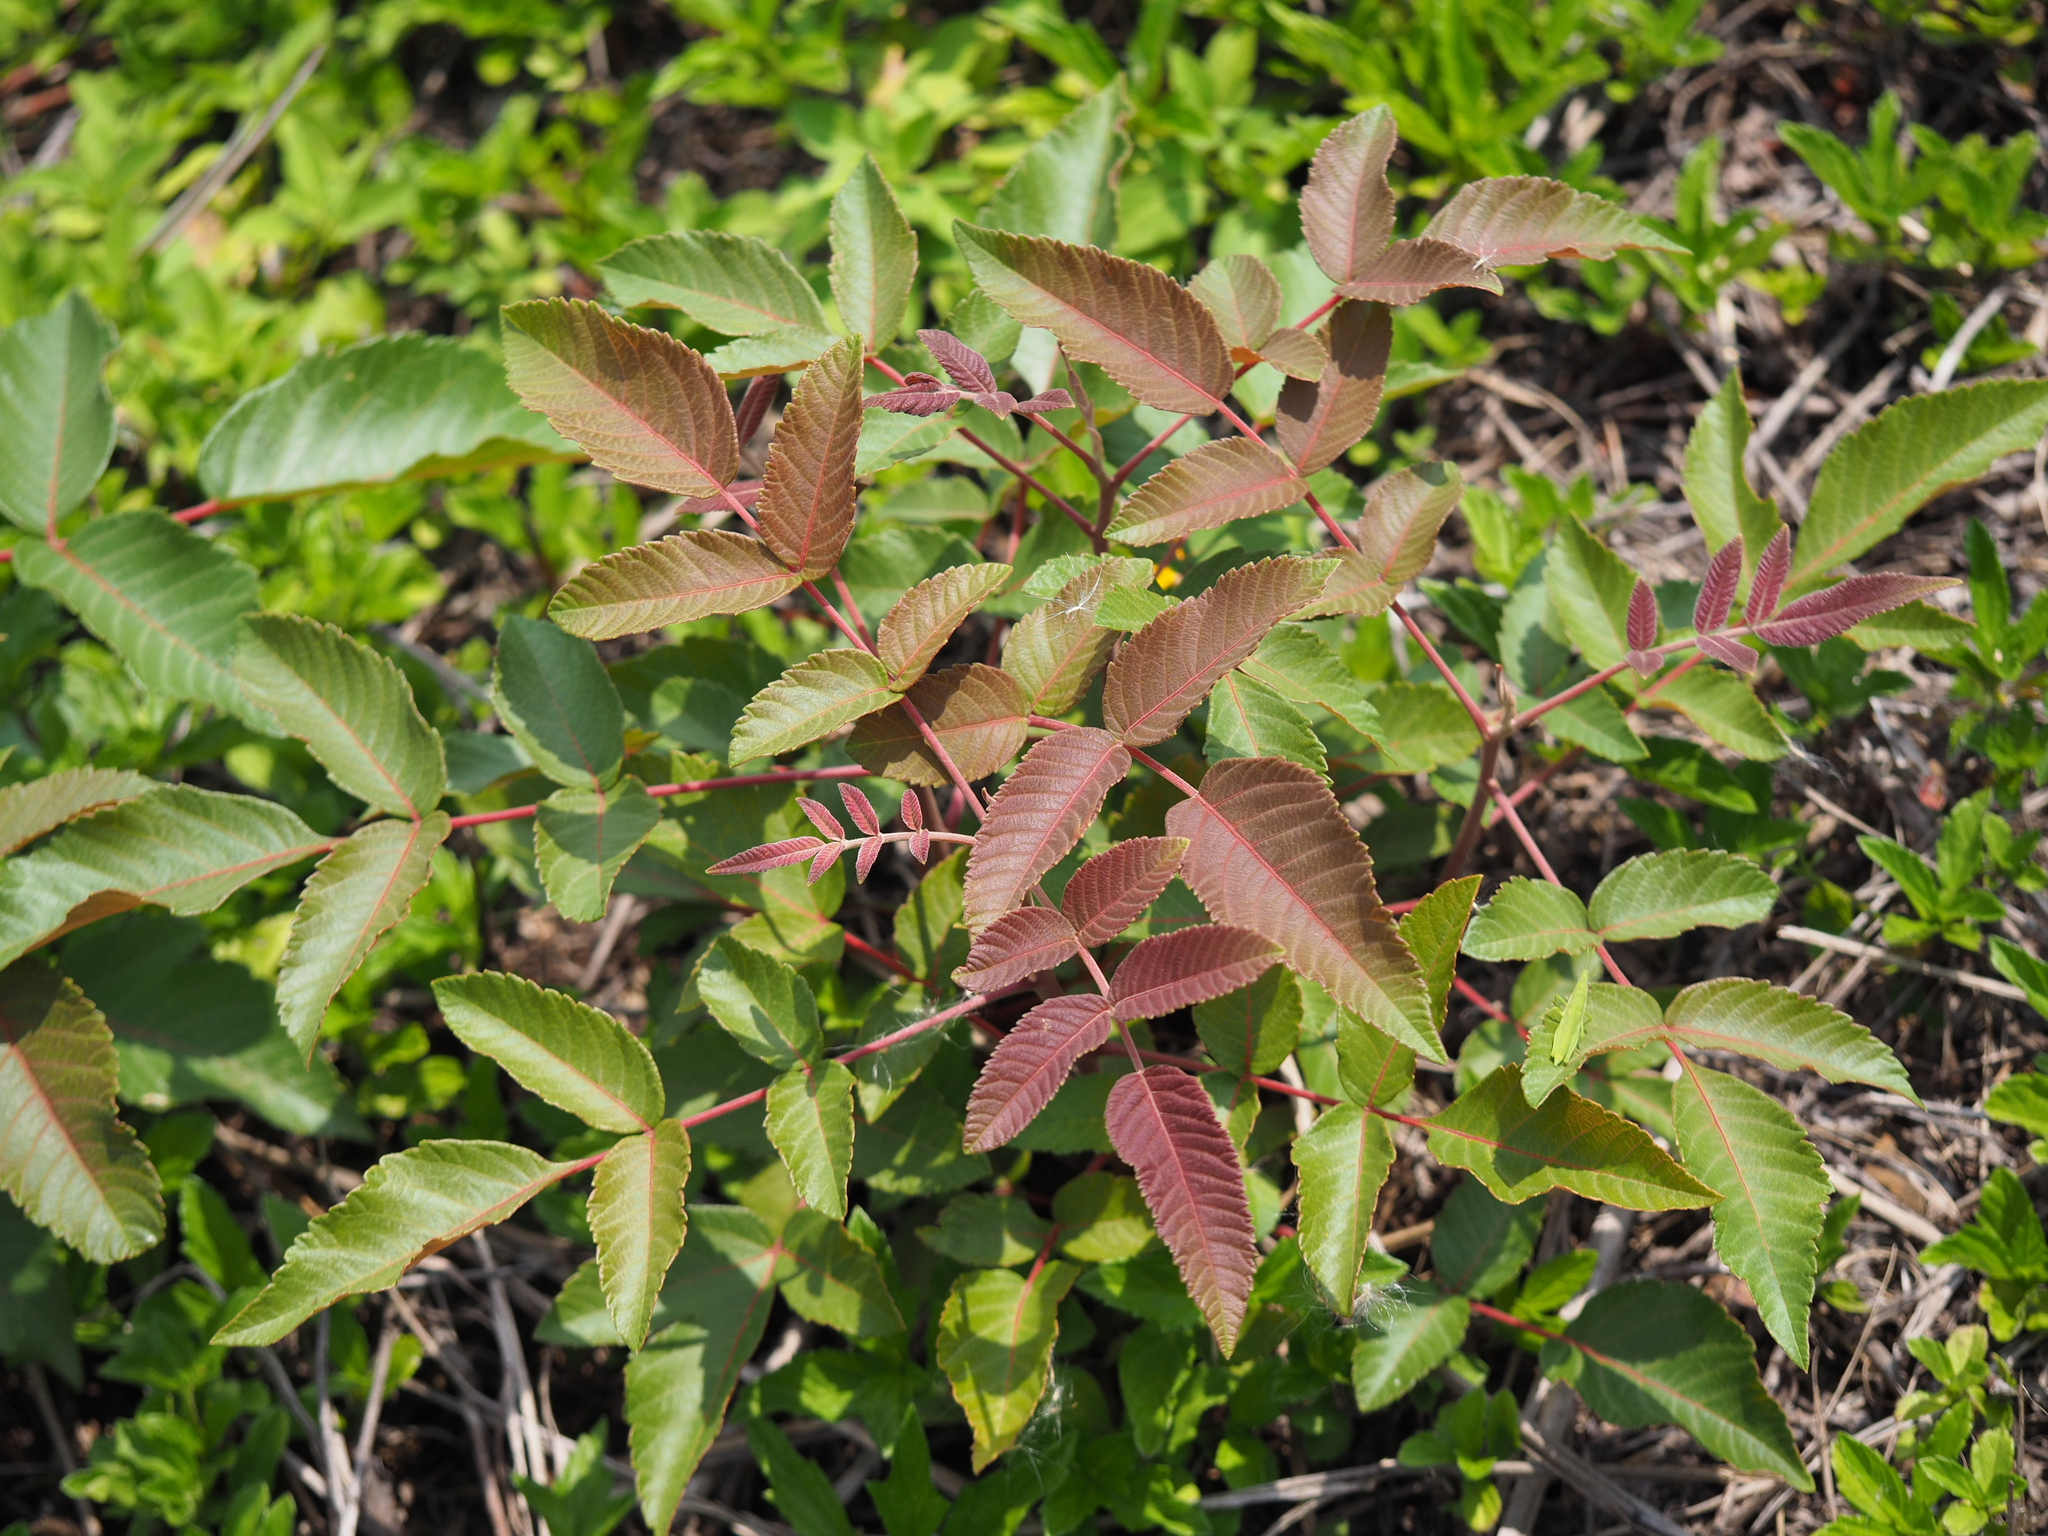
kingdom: Plantae
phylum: Tracheophyta
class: Magnoliopsida
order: Sapindales
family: Anacardiaceae
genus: Rhus
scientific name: Rhus chinensis
